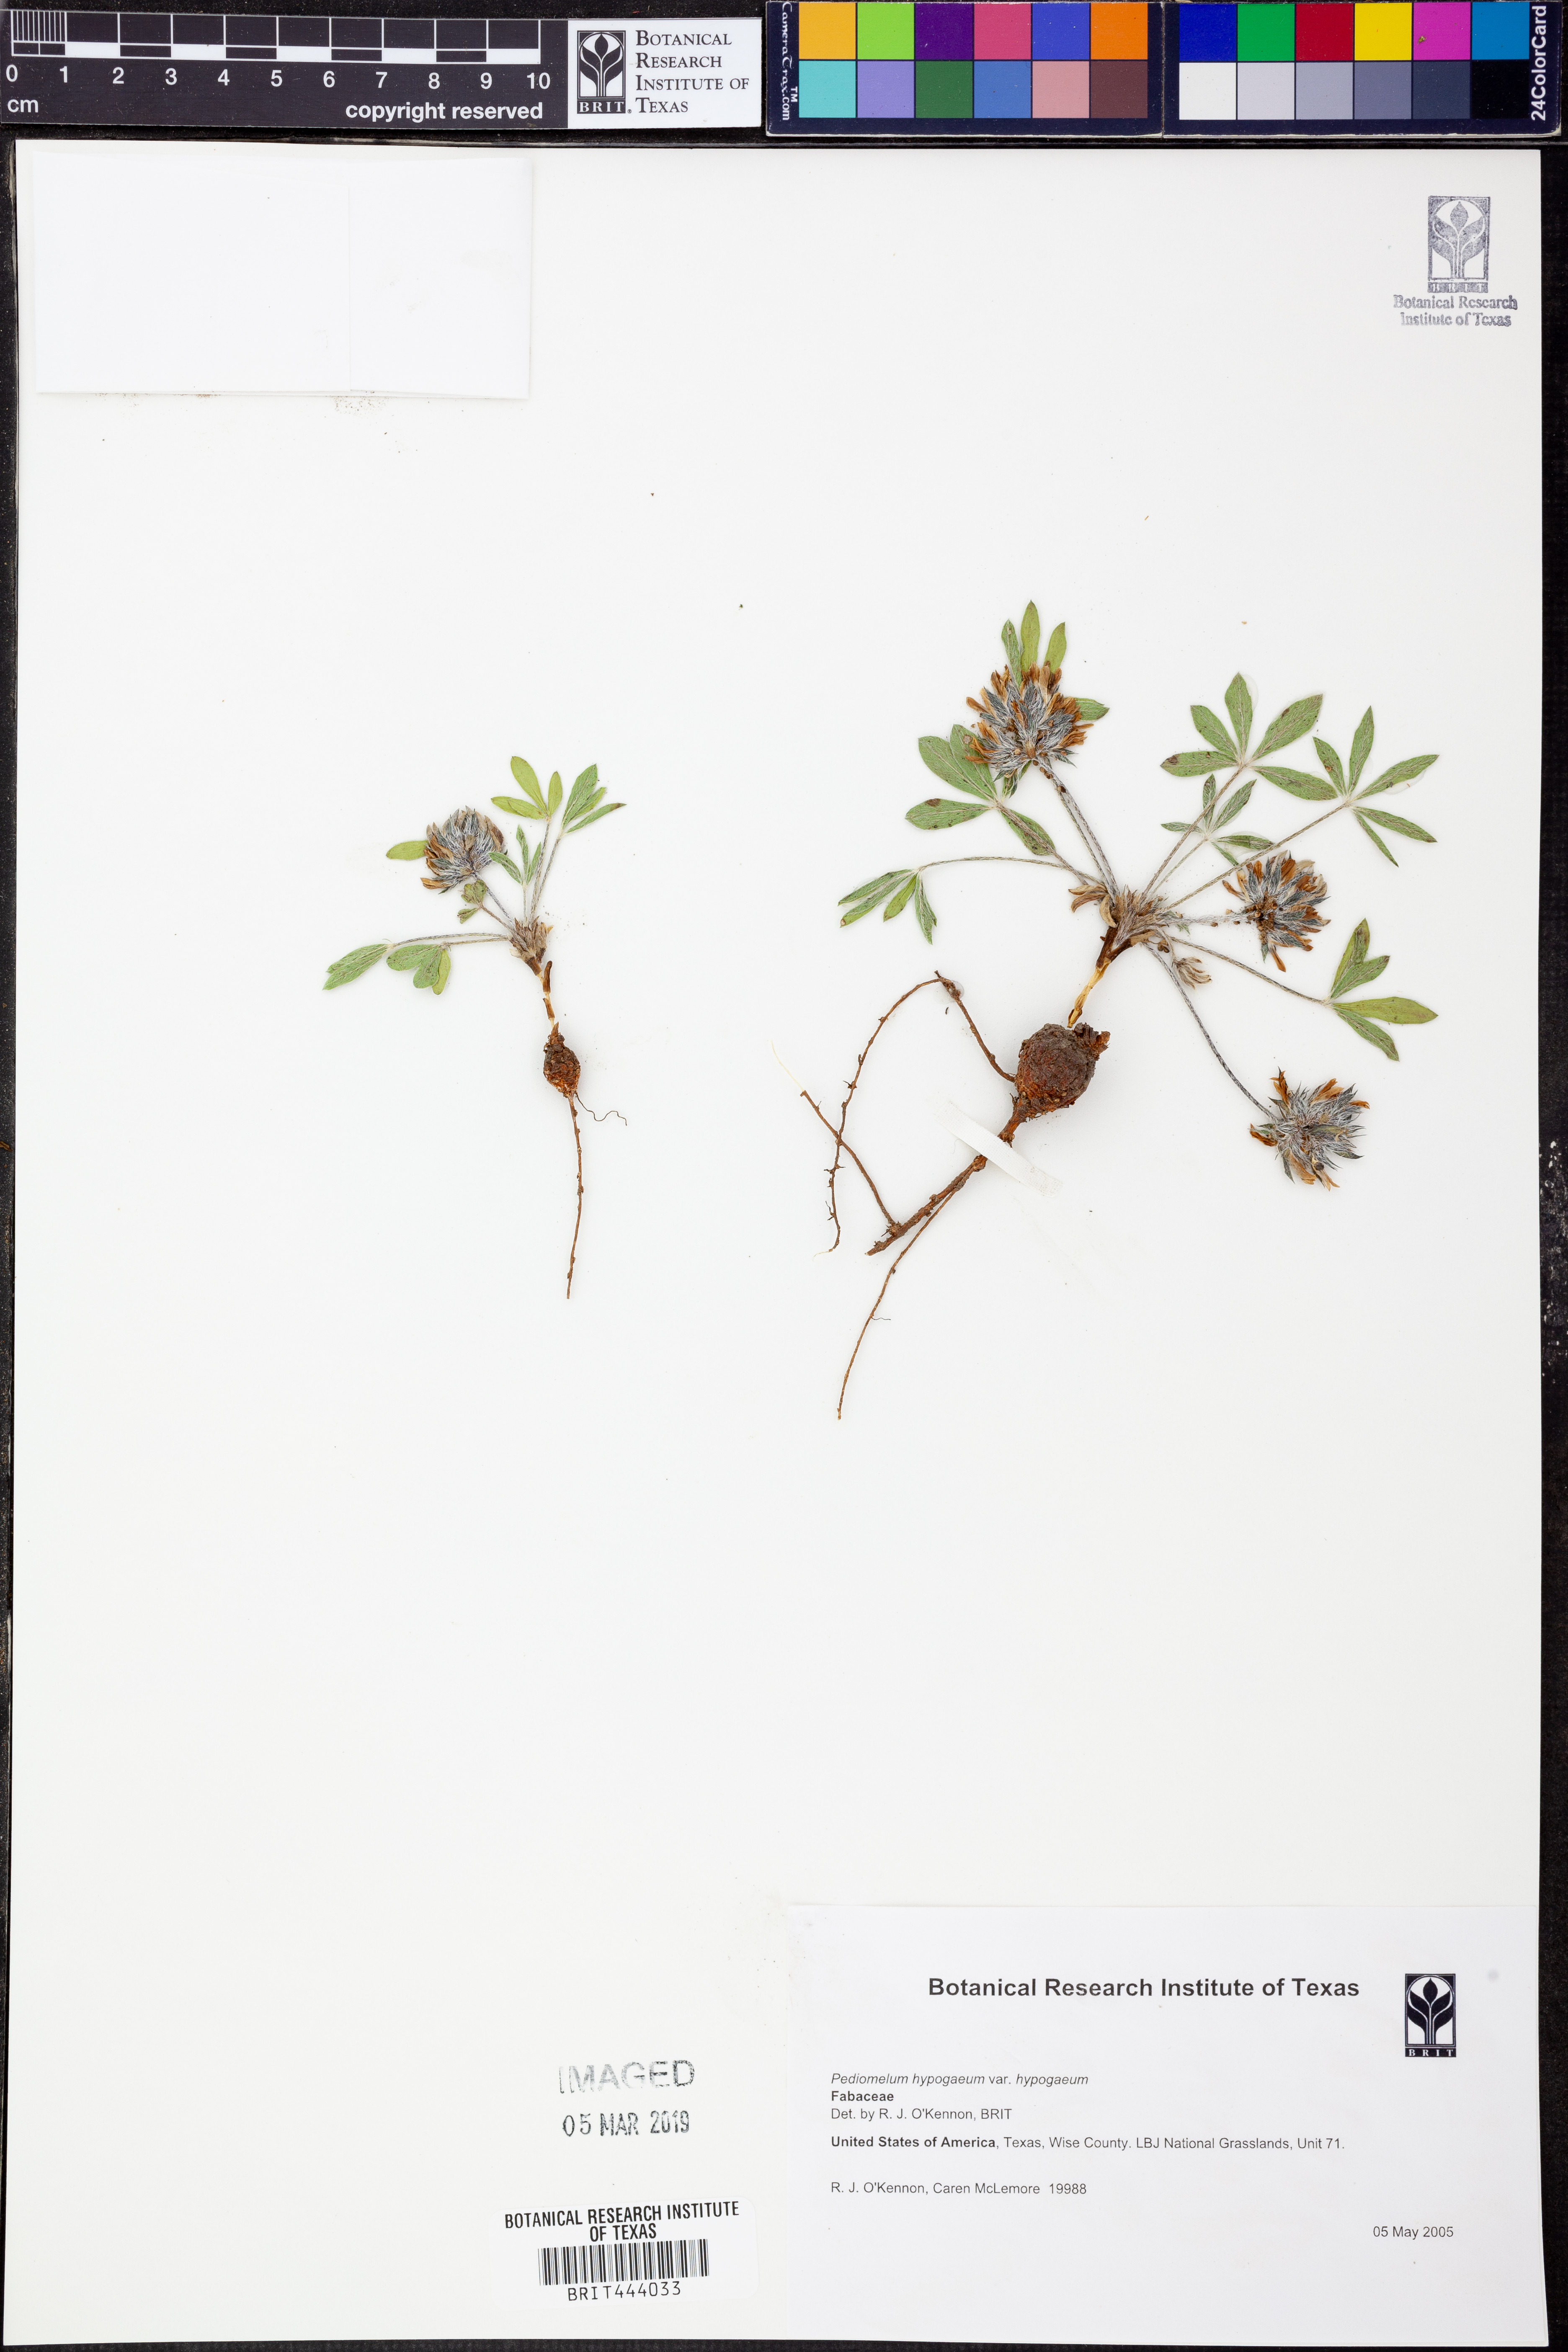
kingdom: Plantae
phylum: Tracheophyta
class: Magnoliopsida
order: Fabales
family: Fabaceae
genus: Pediomelum
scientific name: Pediomelum hypogaeum
